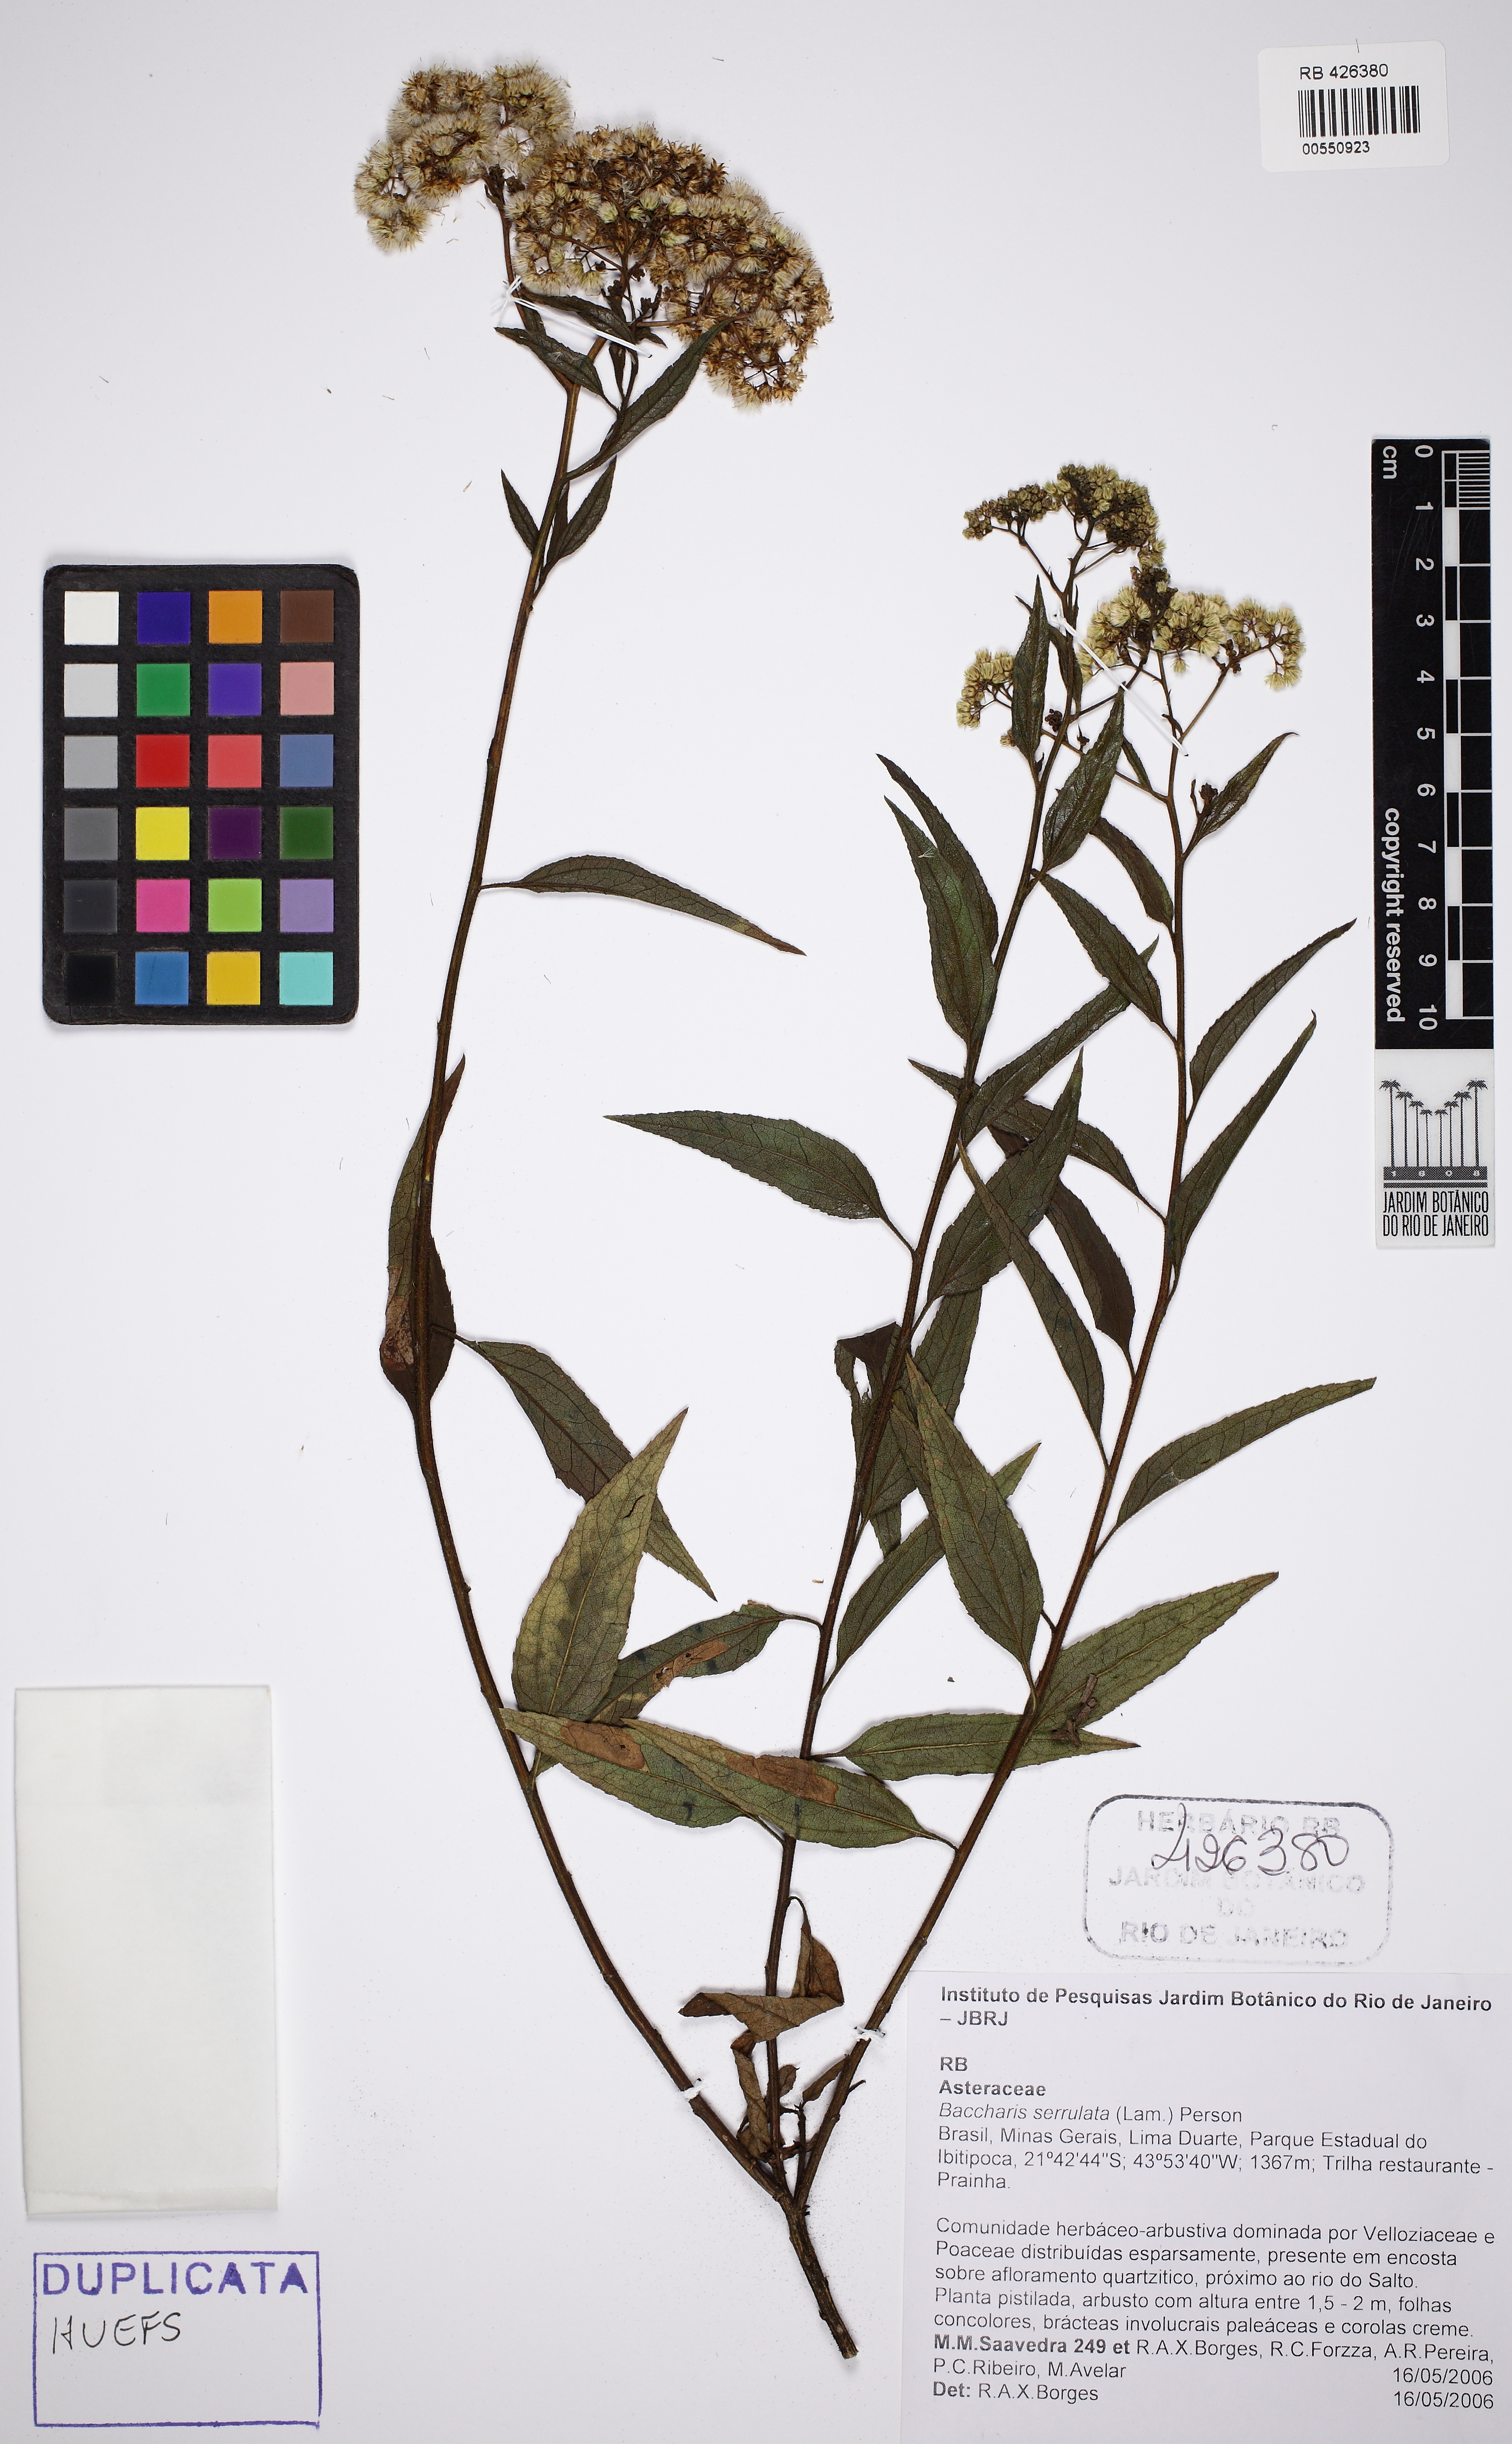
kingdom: Plantae
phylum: Tracheophyta
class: Magnoliopsida
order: Asterales
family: Asteraceae
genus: Baccharis
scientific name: Baccharis serrulata
